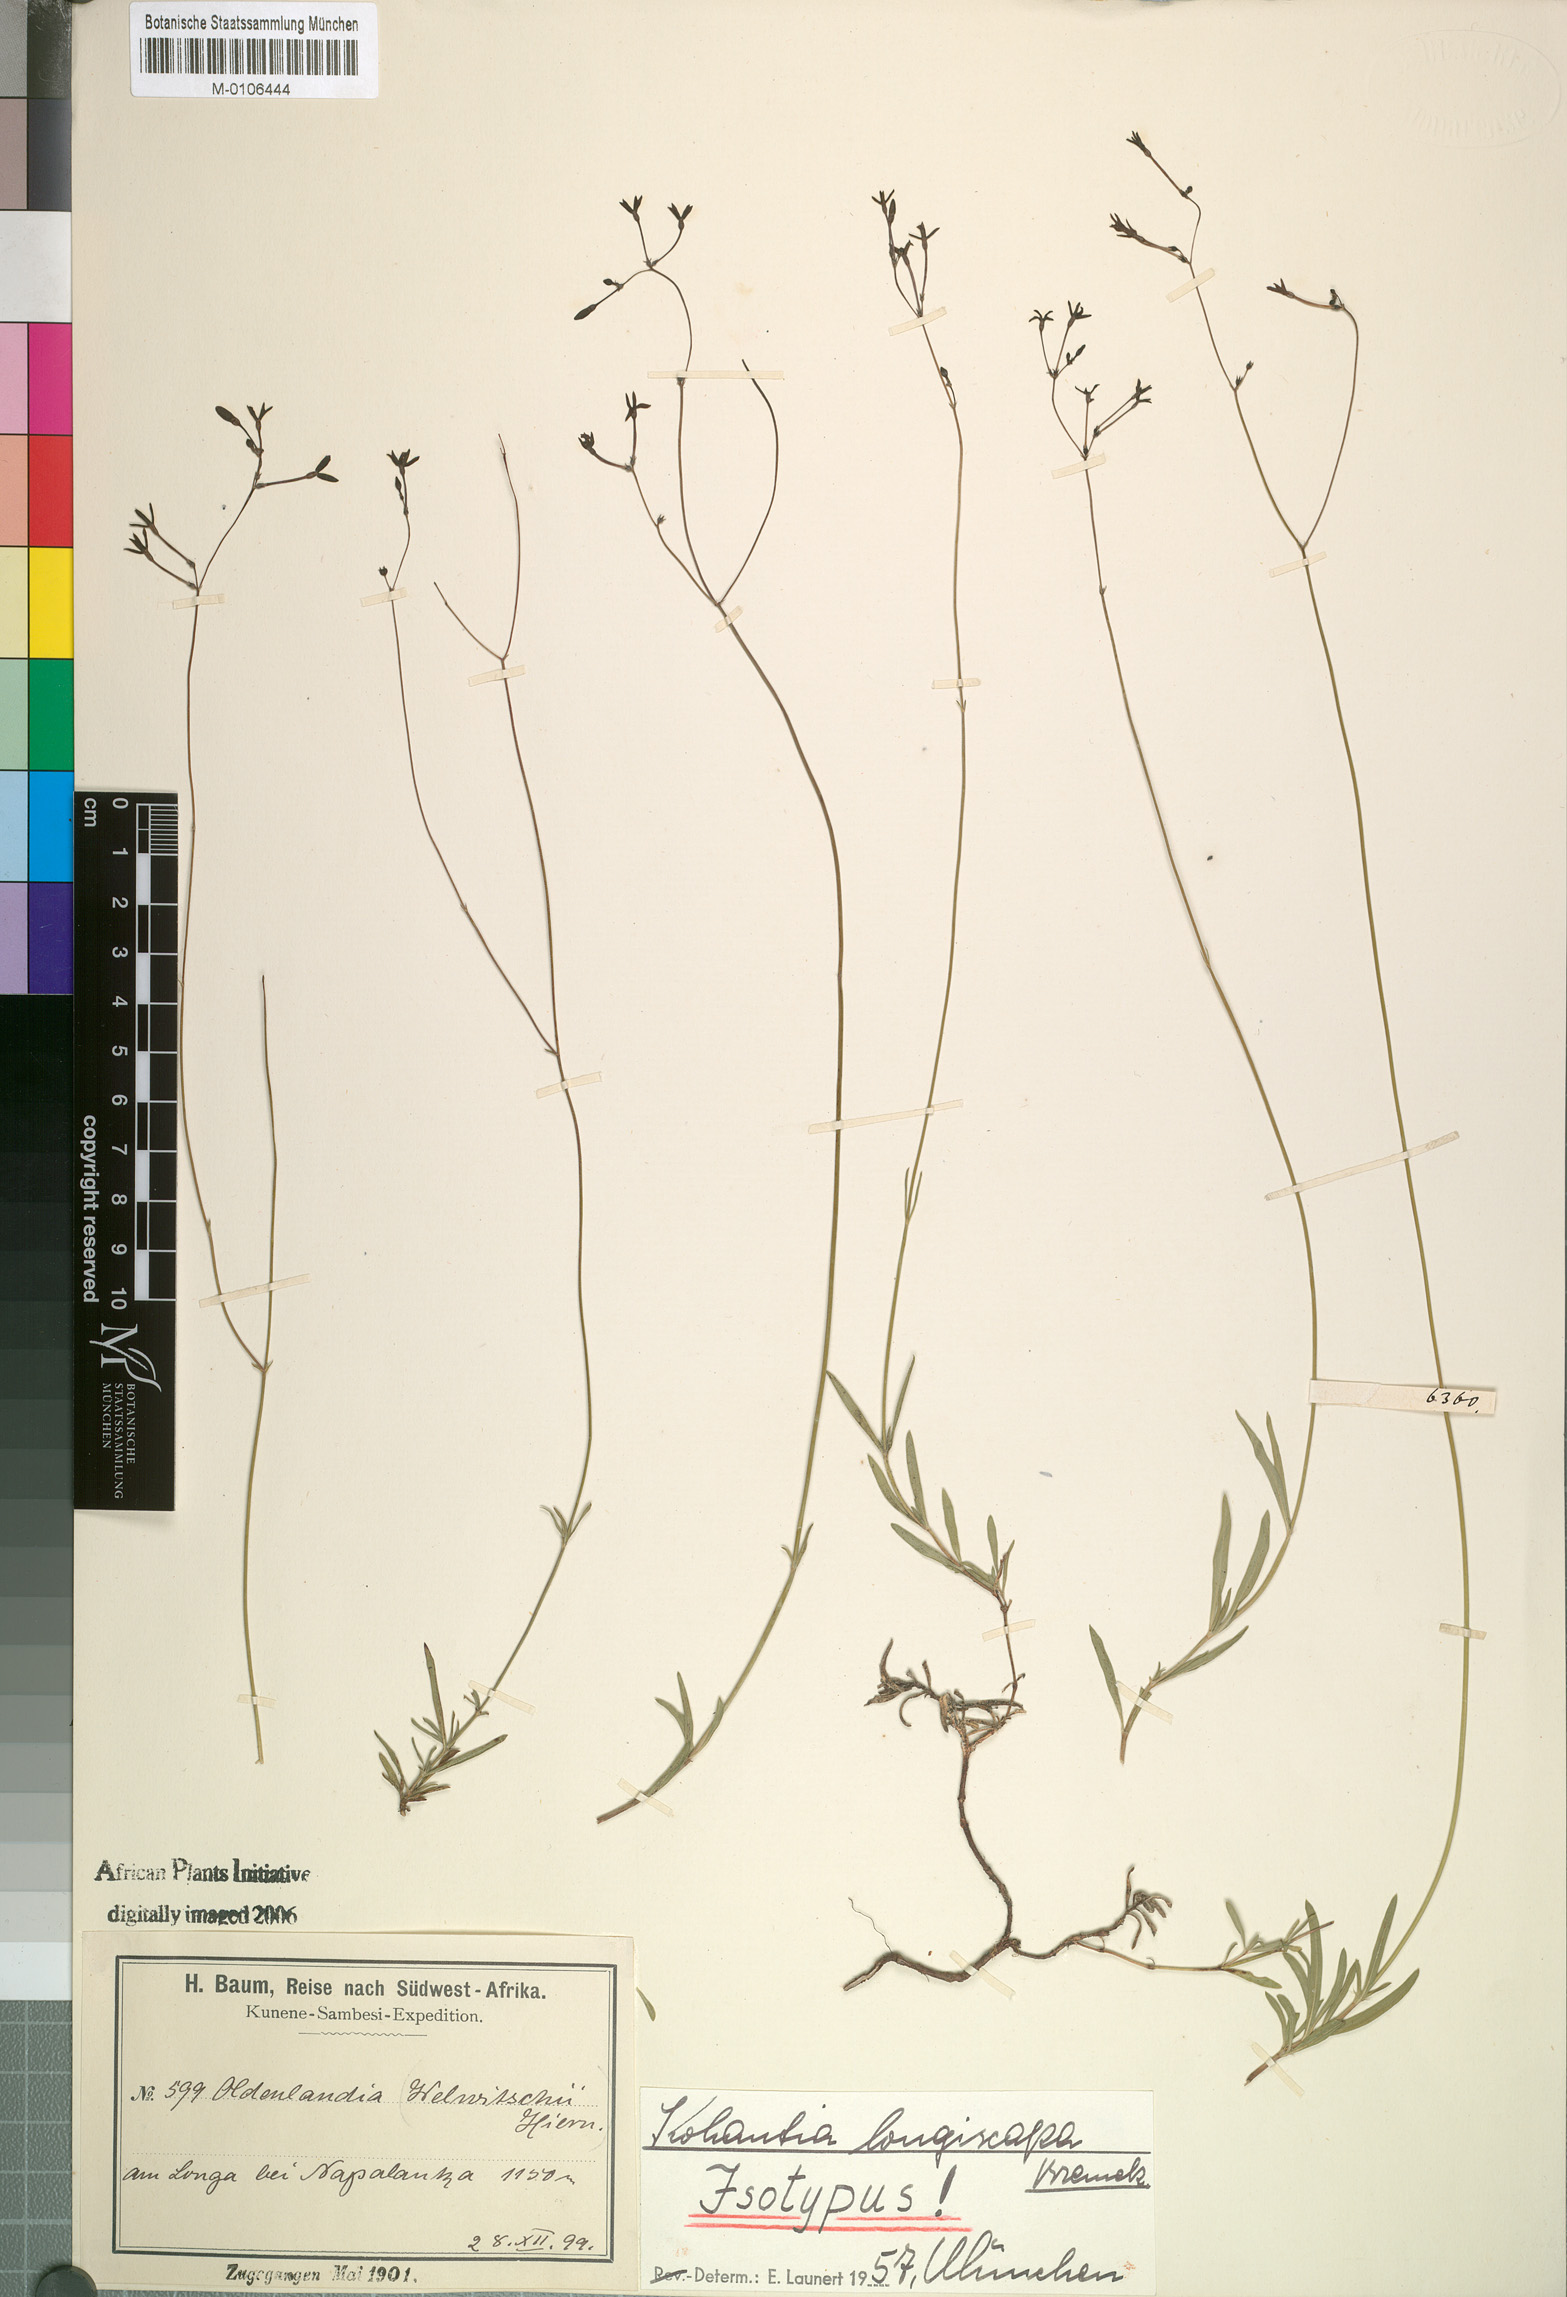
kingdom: Plantae
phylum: Tracheophyta
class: Magnoliopsida
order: Gentianales
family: Rubiaceae
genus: Kohautia
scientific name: Kohautia caespitosa
